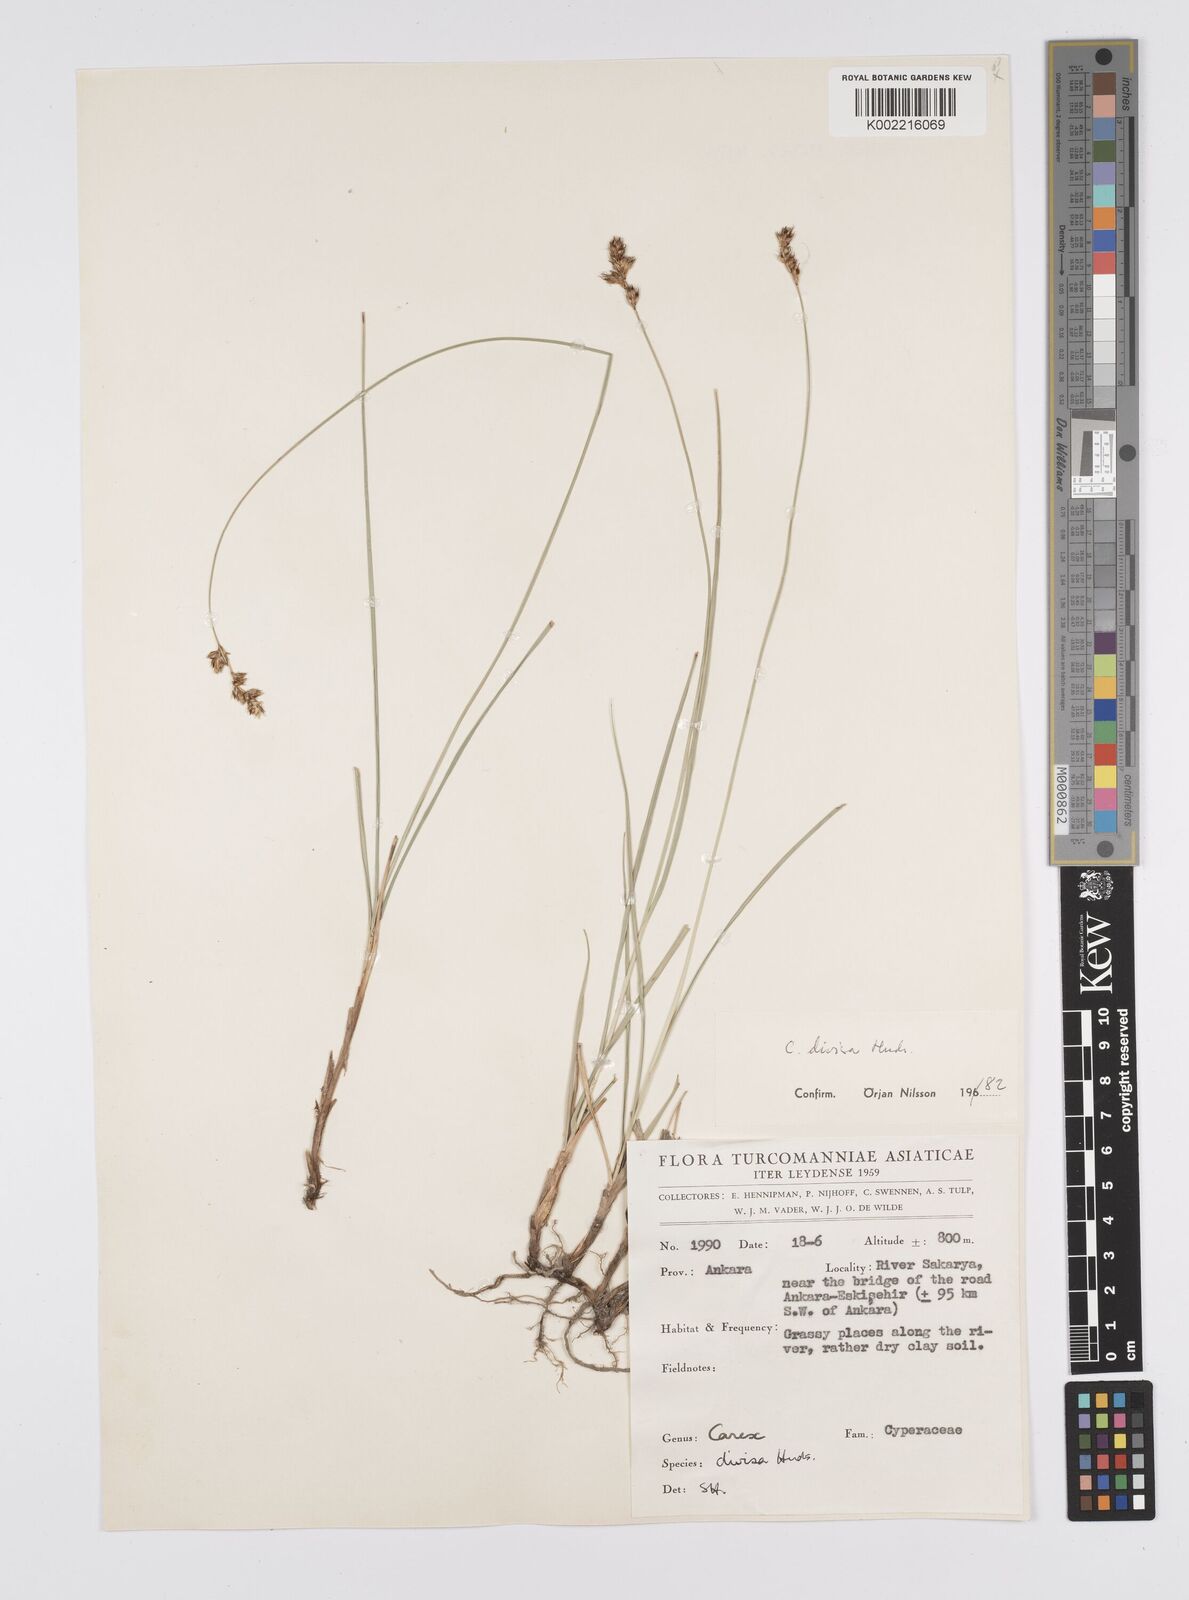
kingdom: Plantae
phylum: Tracheophyta
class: Liliopsida
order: Poales
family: Cyperaceae
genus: Carex
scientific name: Carex divisa
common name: Divided sedge
